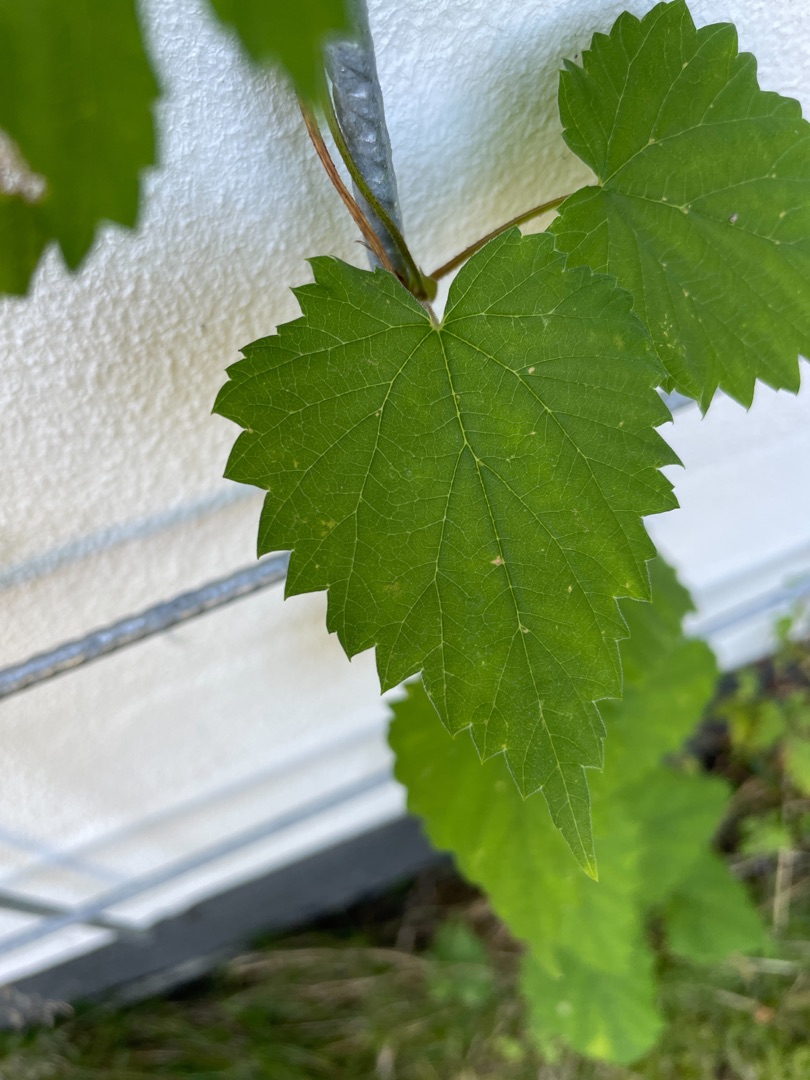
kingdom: Plantae
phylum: Tracheophyta
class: Magnoliopsida
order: Rosales
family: Cannabaceae
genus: Humulus
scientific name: Humulus lupulus
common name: Humle
